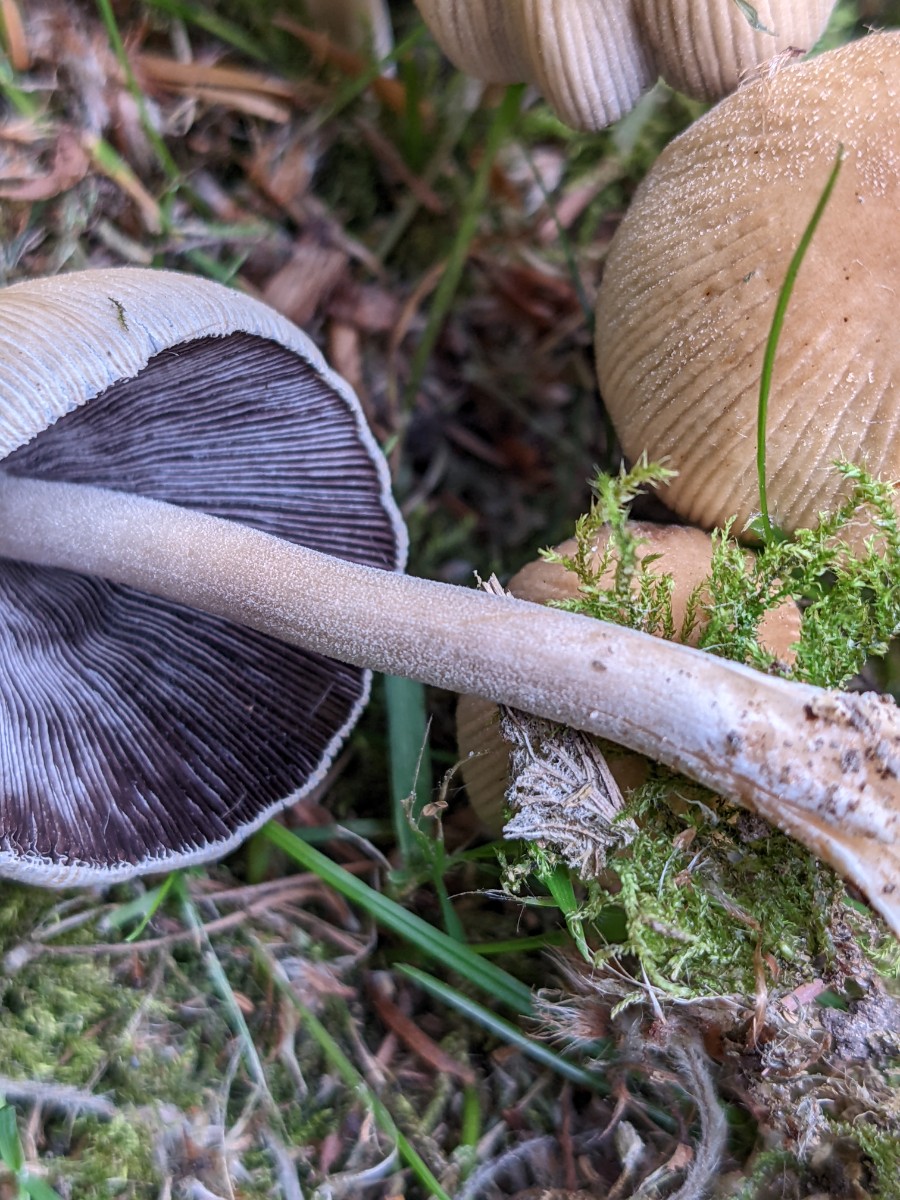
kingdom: Fungi
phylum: Basidiomycota
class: Agaricomycetes
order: Agaricales
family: Psathyrellaceae
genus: Coprinellus
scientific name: Coprinellus micaceus
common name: glimmer-blækhat
